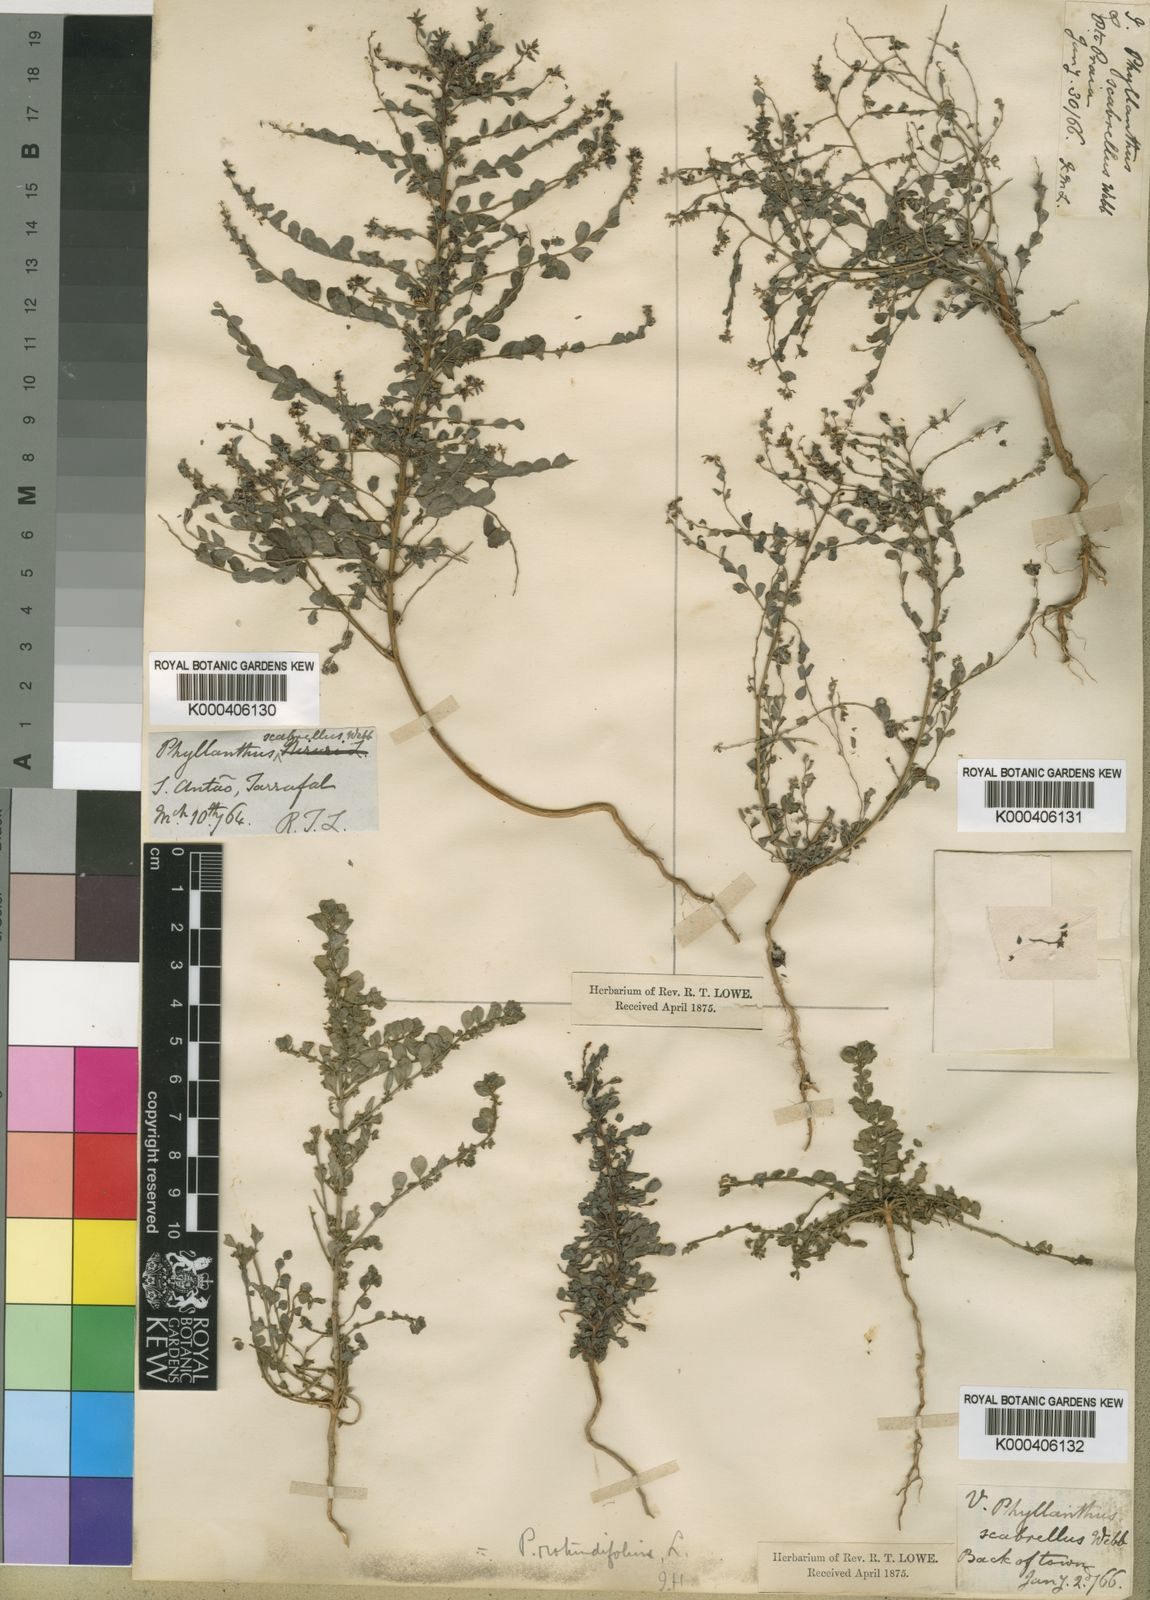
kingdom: Plantae
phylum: Tracheophyta
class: Magnoliopsida
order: Malpighiales
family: Phyllanthaceae
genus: Phyllanthus
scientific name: Phyllanthus rotundifolius
